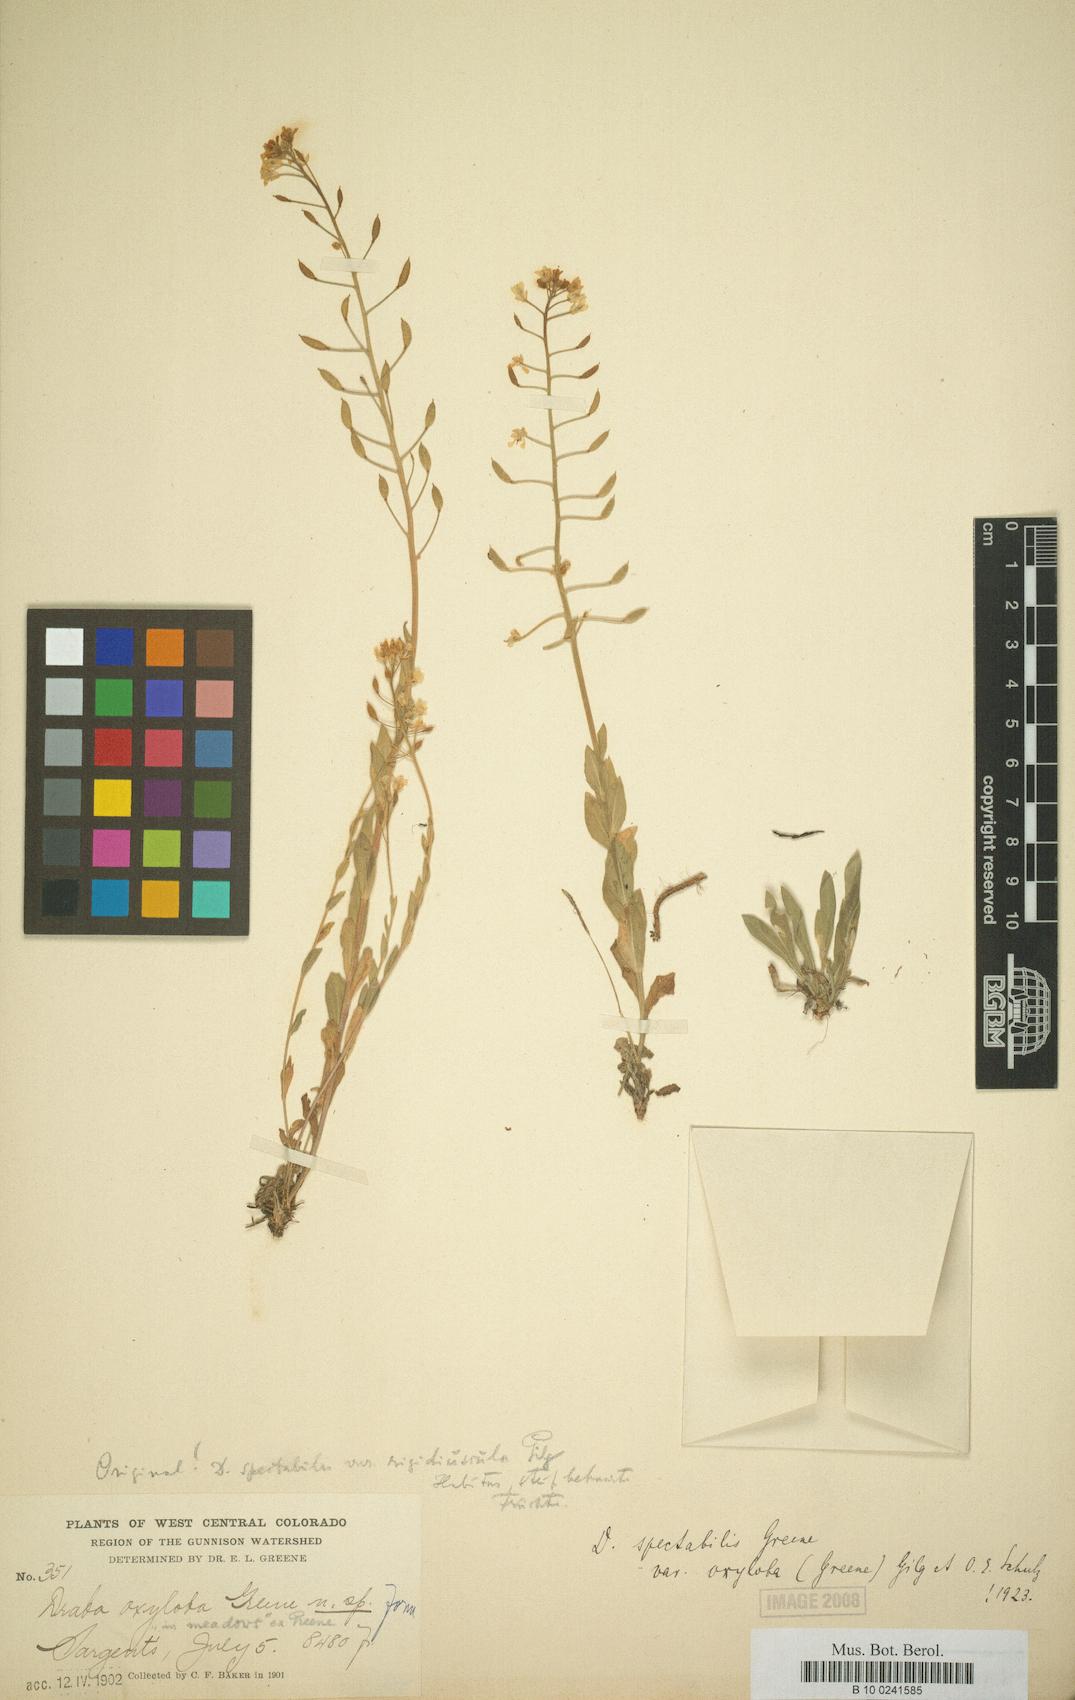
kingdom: Plantae
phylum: Tracheophyta
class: Magnoliopsida
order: Brassicales
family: Brassicaceae
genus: Draba
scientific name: Draba spectabilis
